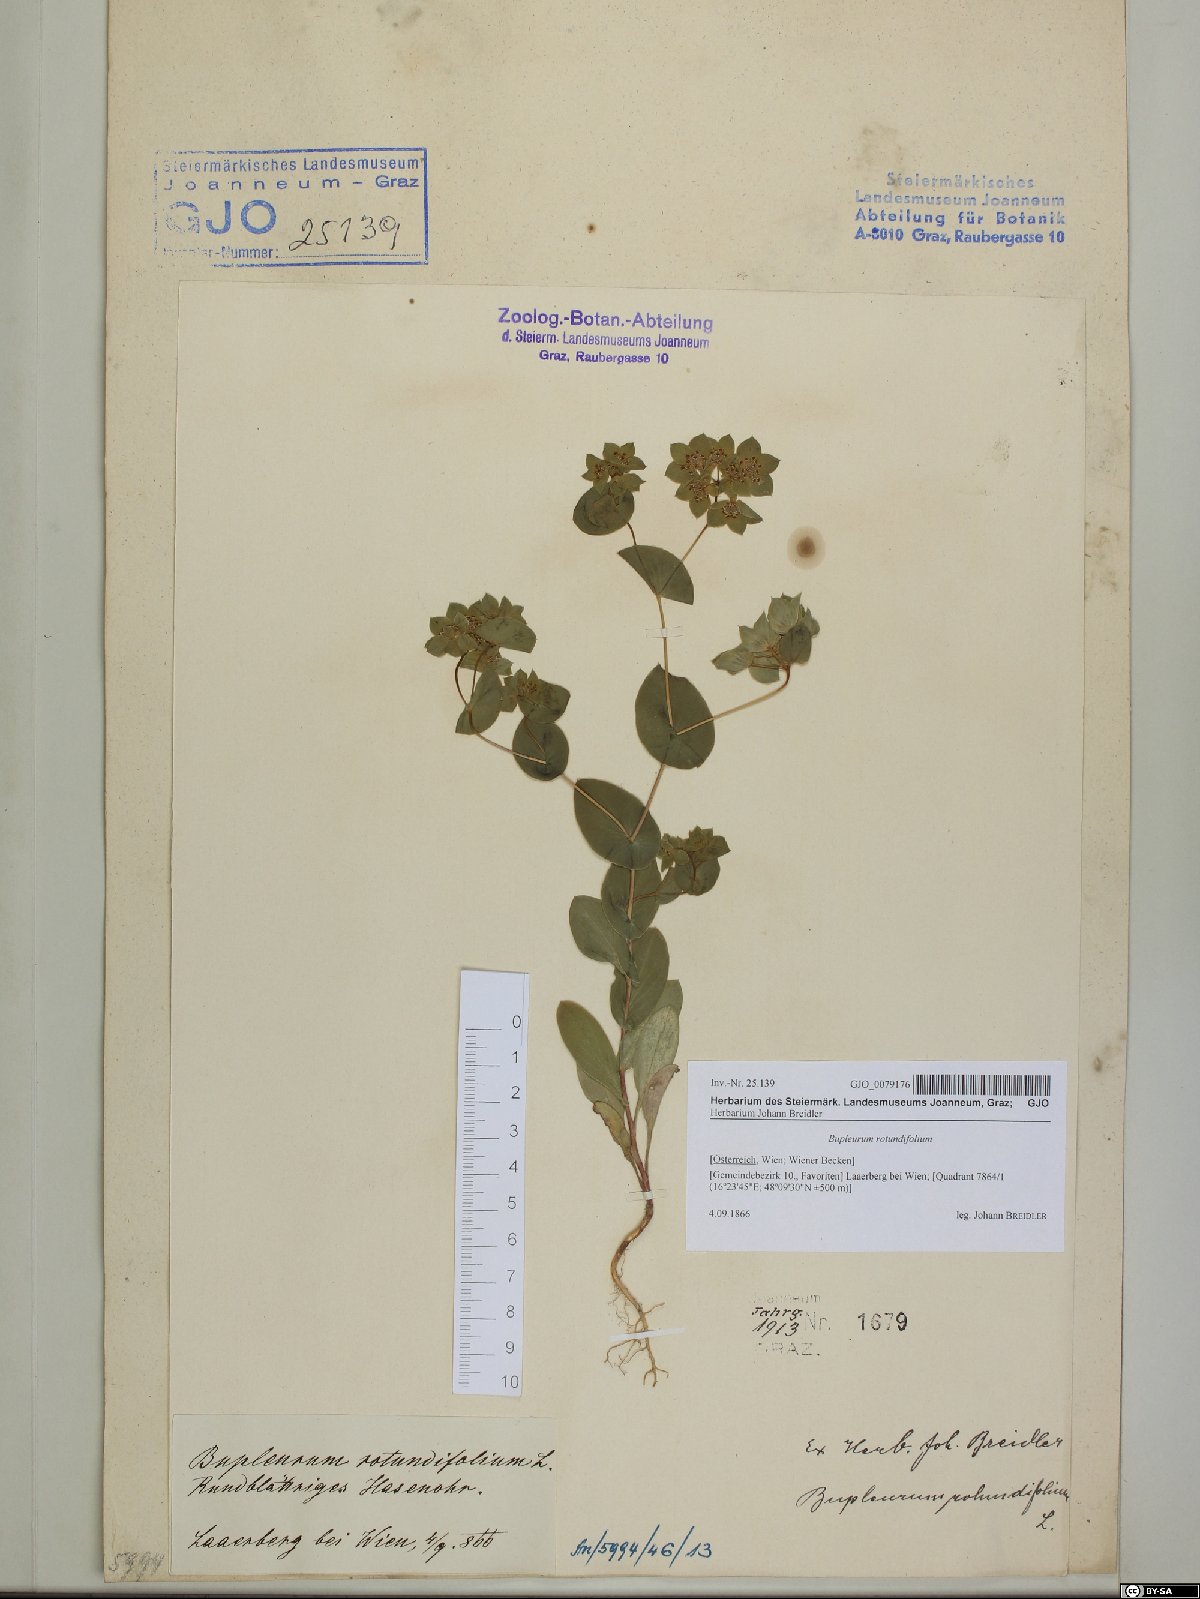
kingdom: Plantae
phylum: Tracheophyta
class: Magnoliopsida
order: Apiales
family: Apiaceae
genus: Bupleurum
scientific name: Bupleurum rotundifolium
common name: Thorow-wax
